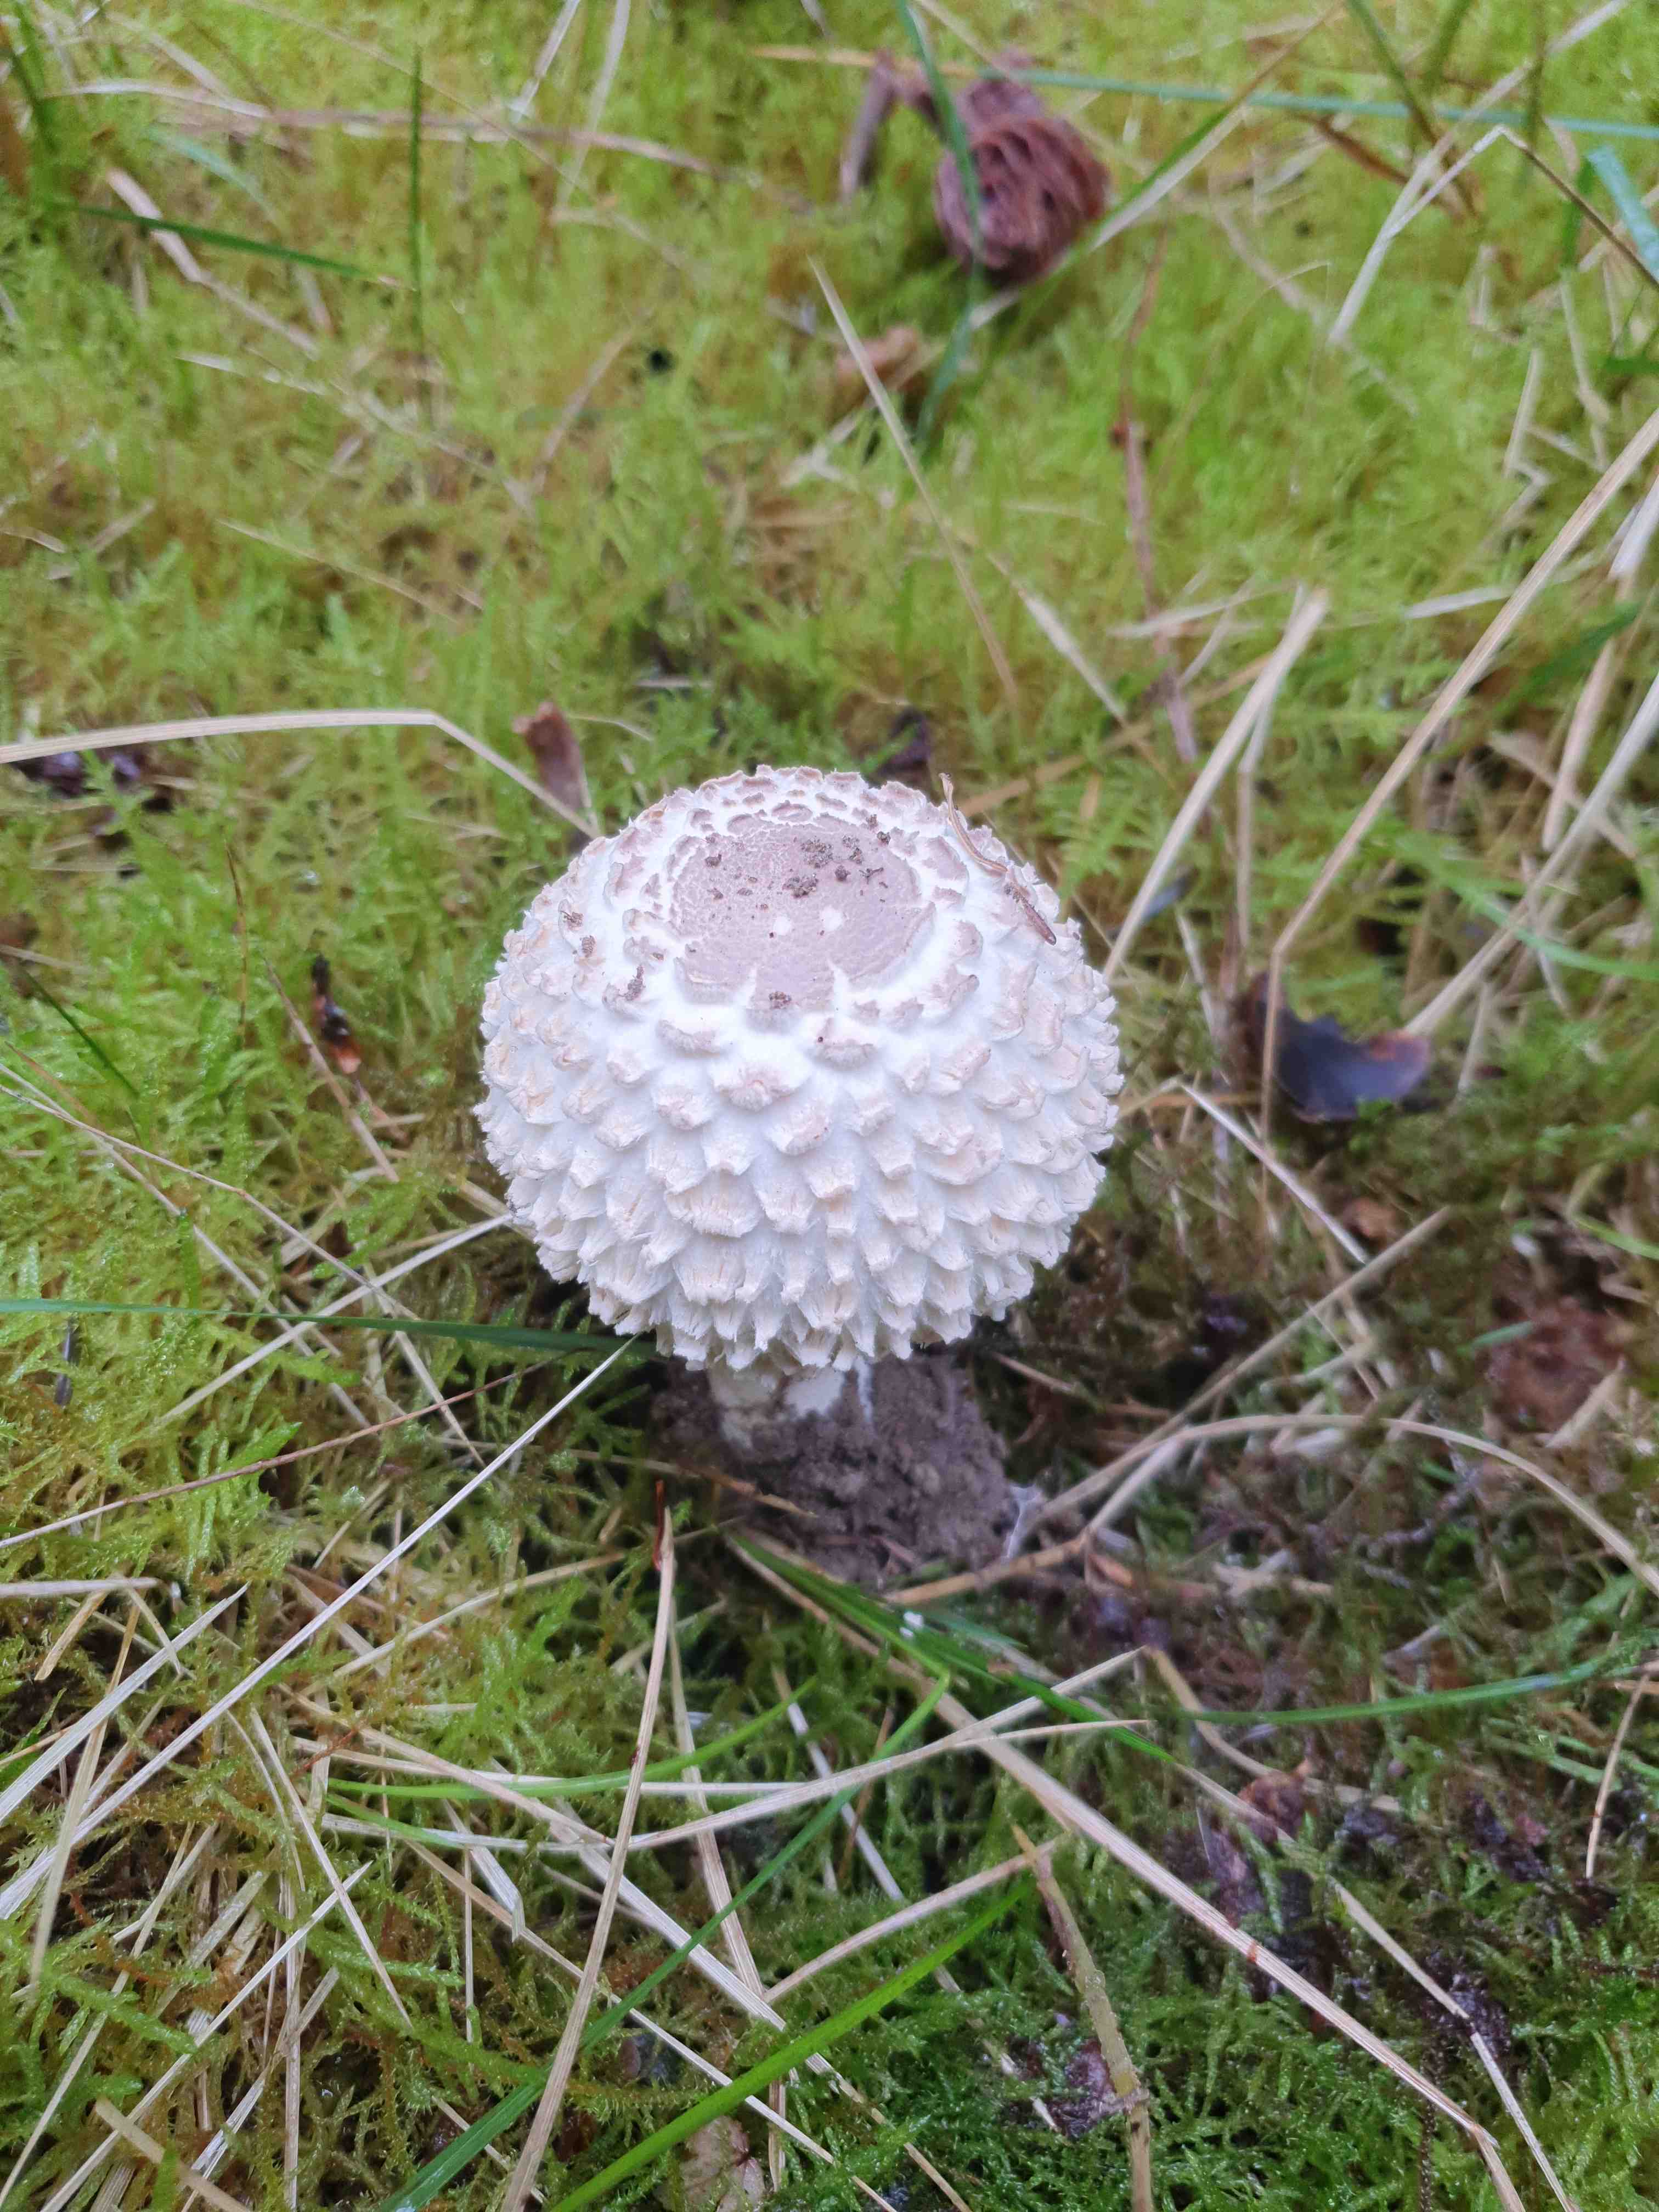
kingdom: Fungi
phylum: Basidiomycota
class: Agaricomycetes
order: Agaricales
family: Agaricaceae
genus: Leucoagaricus
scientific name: Leucoagaricus nympharum
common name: gran-silkehat
